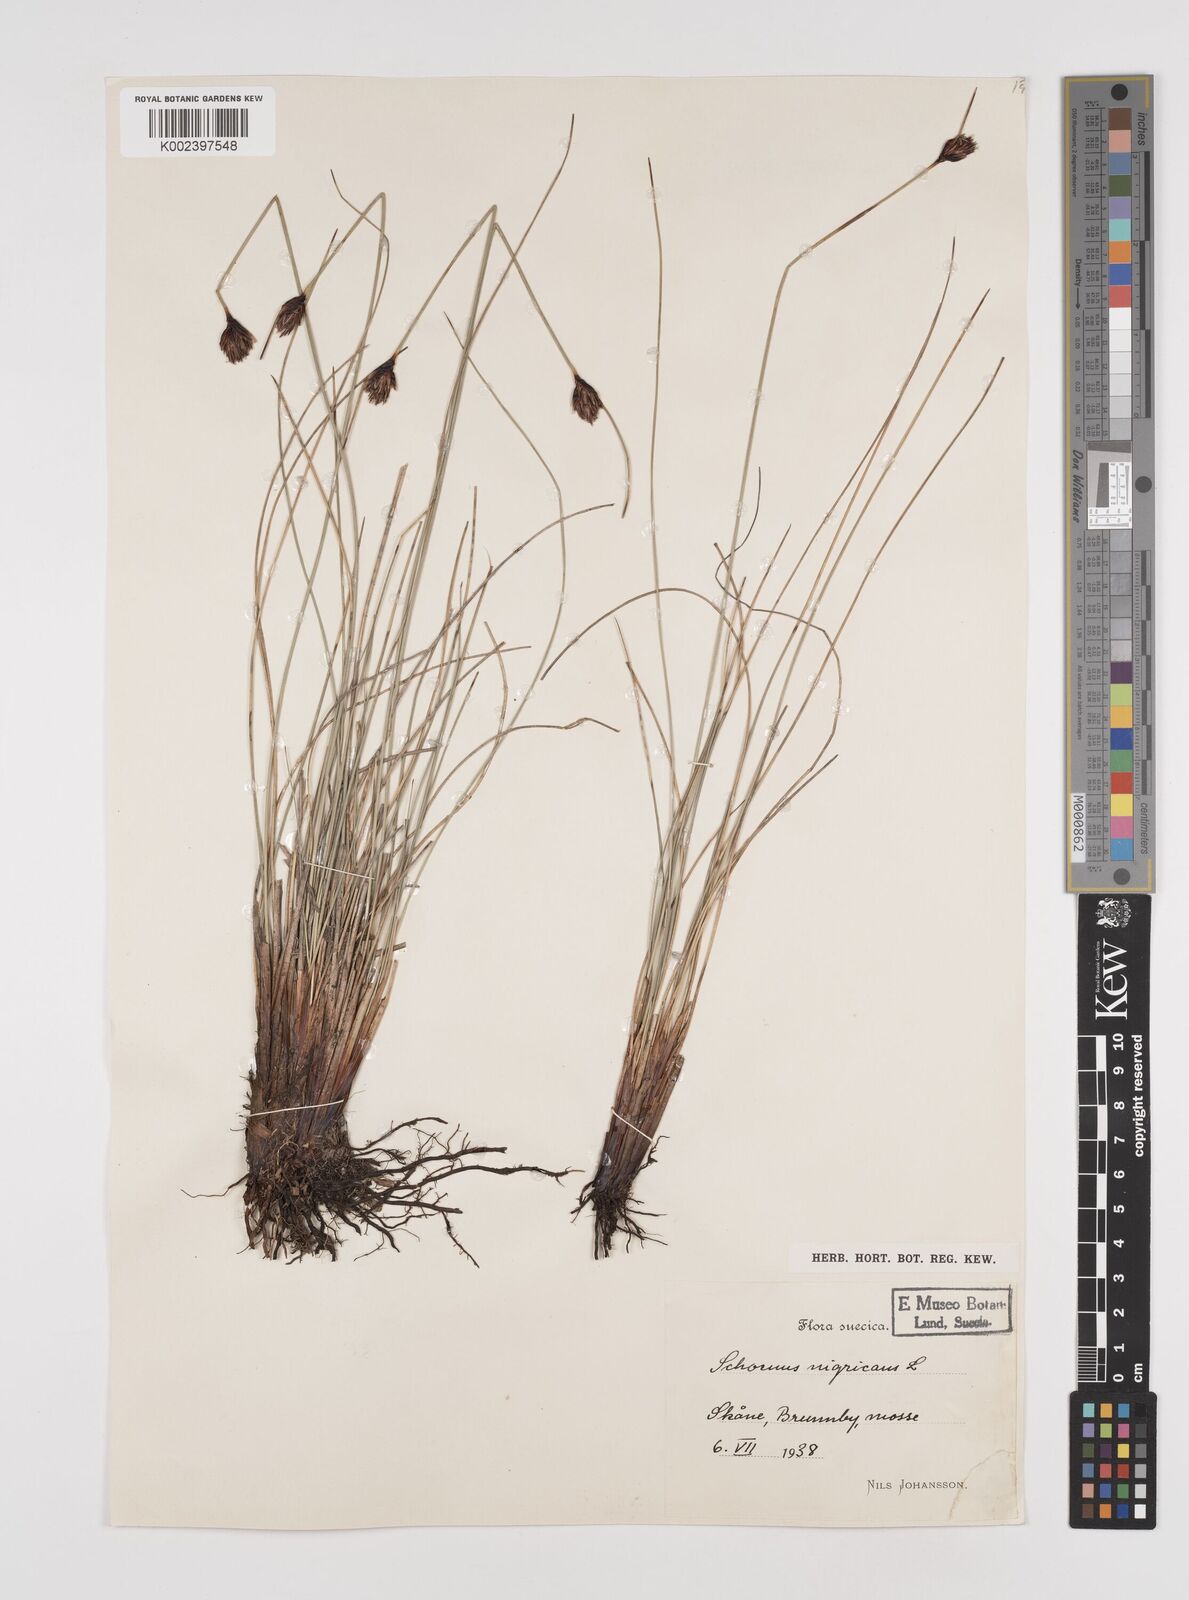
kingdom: Plantae
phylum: Tracheophyta
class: Liliopsida
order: Poales
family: Cyperaceae
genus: Schoenus
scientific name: Schoenus nigricans
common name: Black bog-rush
